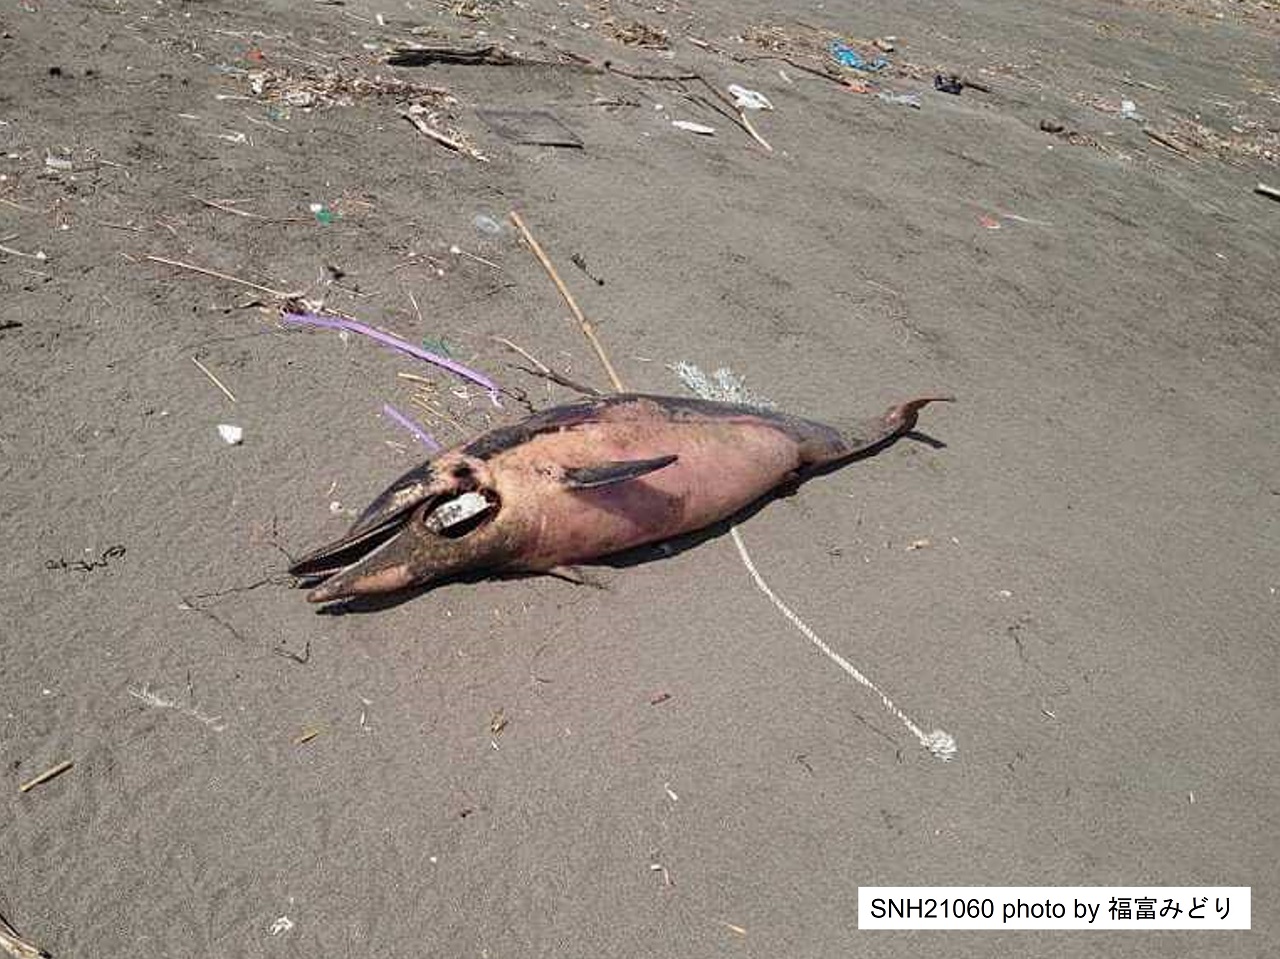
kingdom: Animalia
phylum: Chordata
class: Mammalia
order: Cetacea
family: Delphinidae
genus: Stenella
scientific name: Stenella coeruleoalba
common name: Striped dolphin
